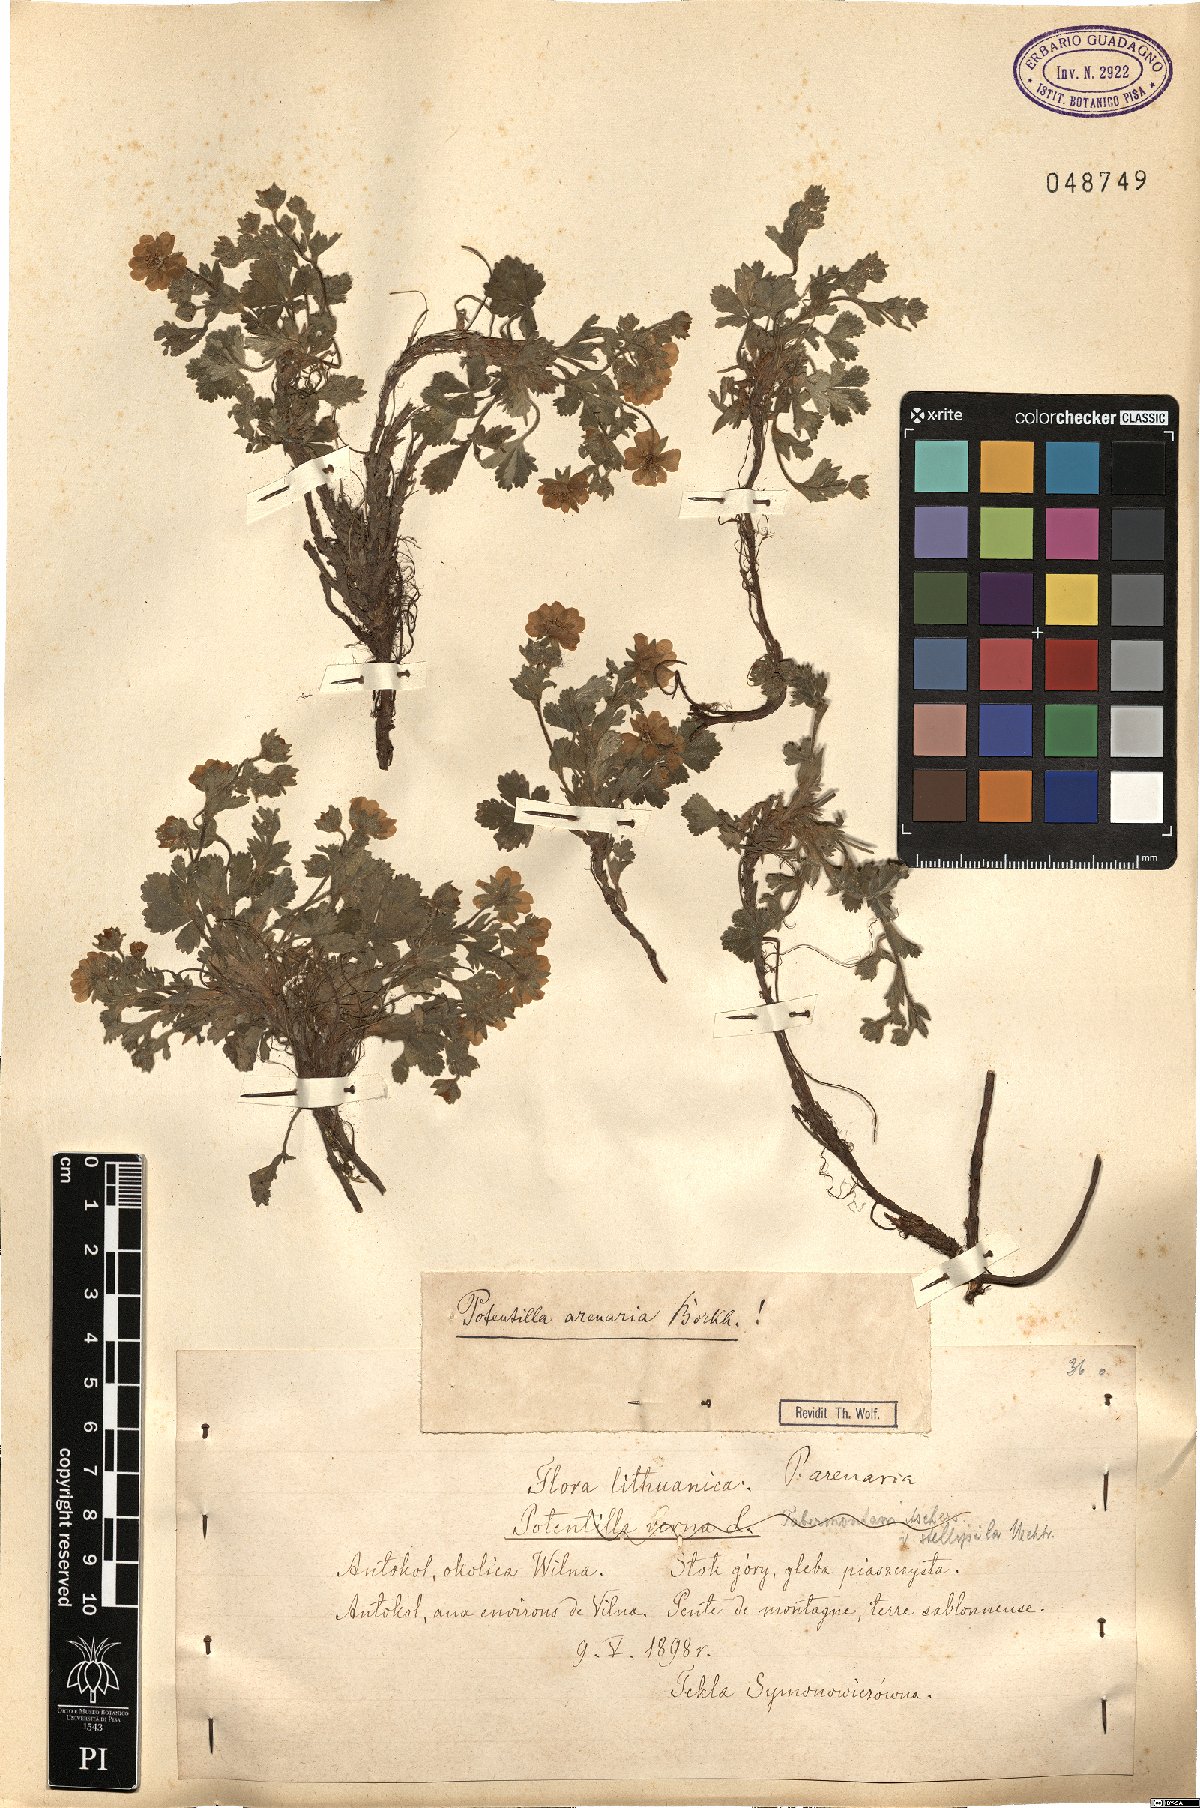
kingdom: Plantae
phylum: Tracheophyta
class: Magnoliopsida
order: Rosales
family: Rosaceae
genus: Potentilla
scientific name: Potentilla cinerea
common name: Ashy cinquefoil
